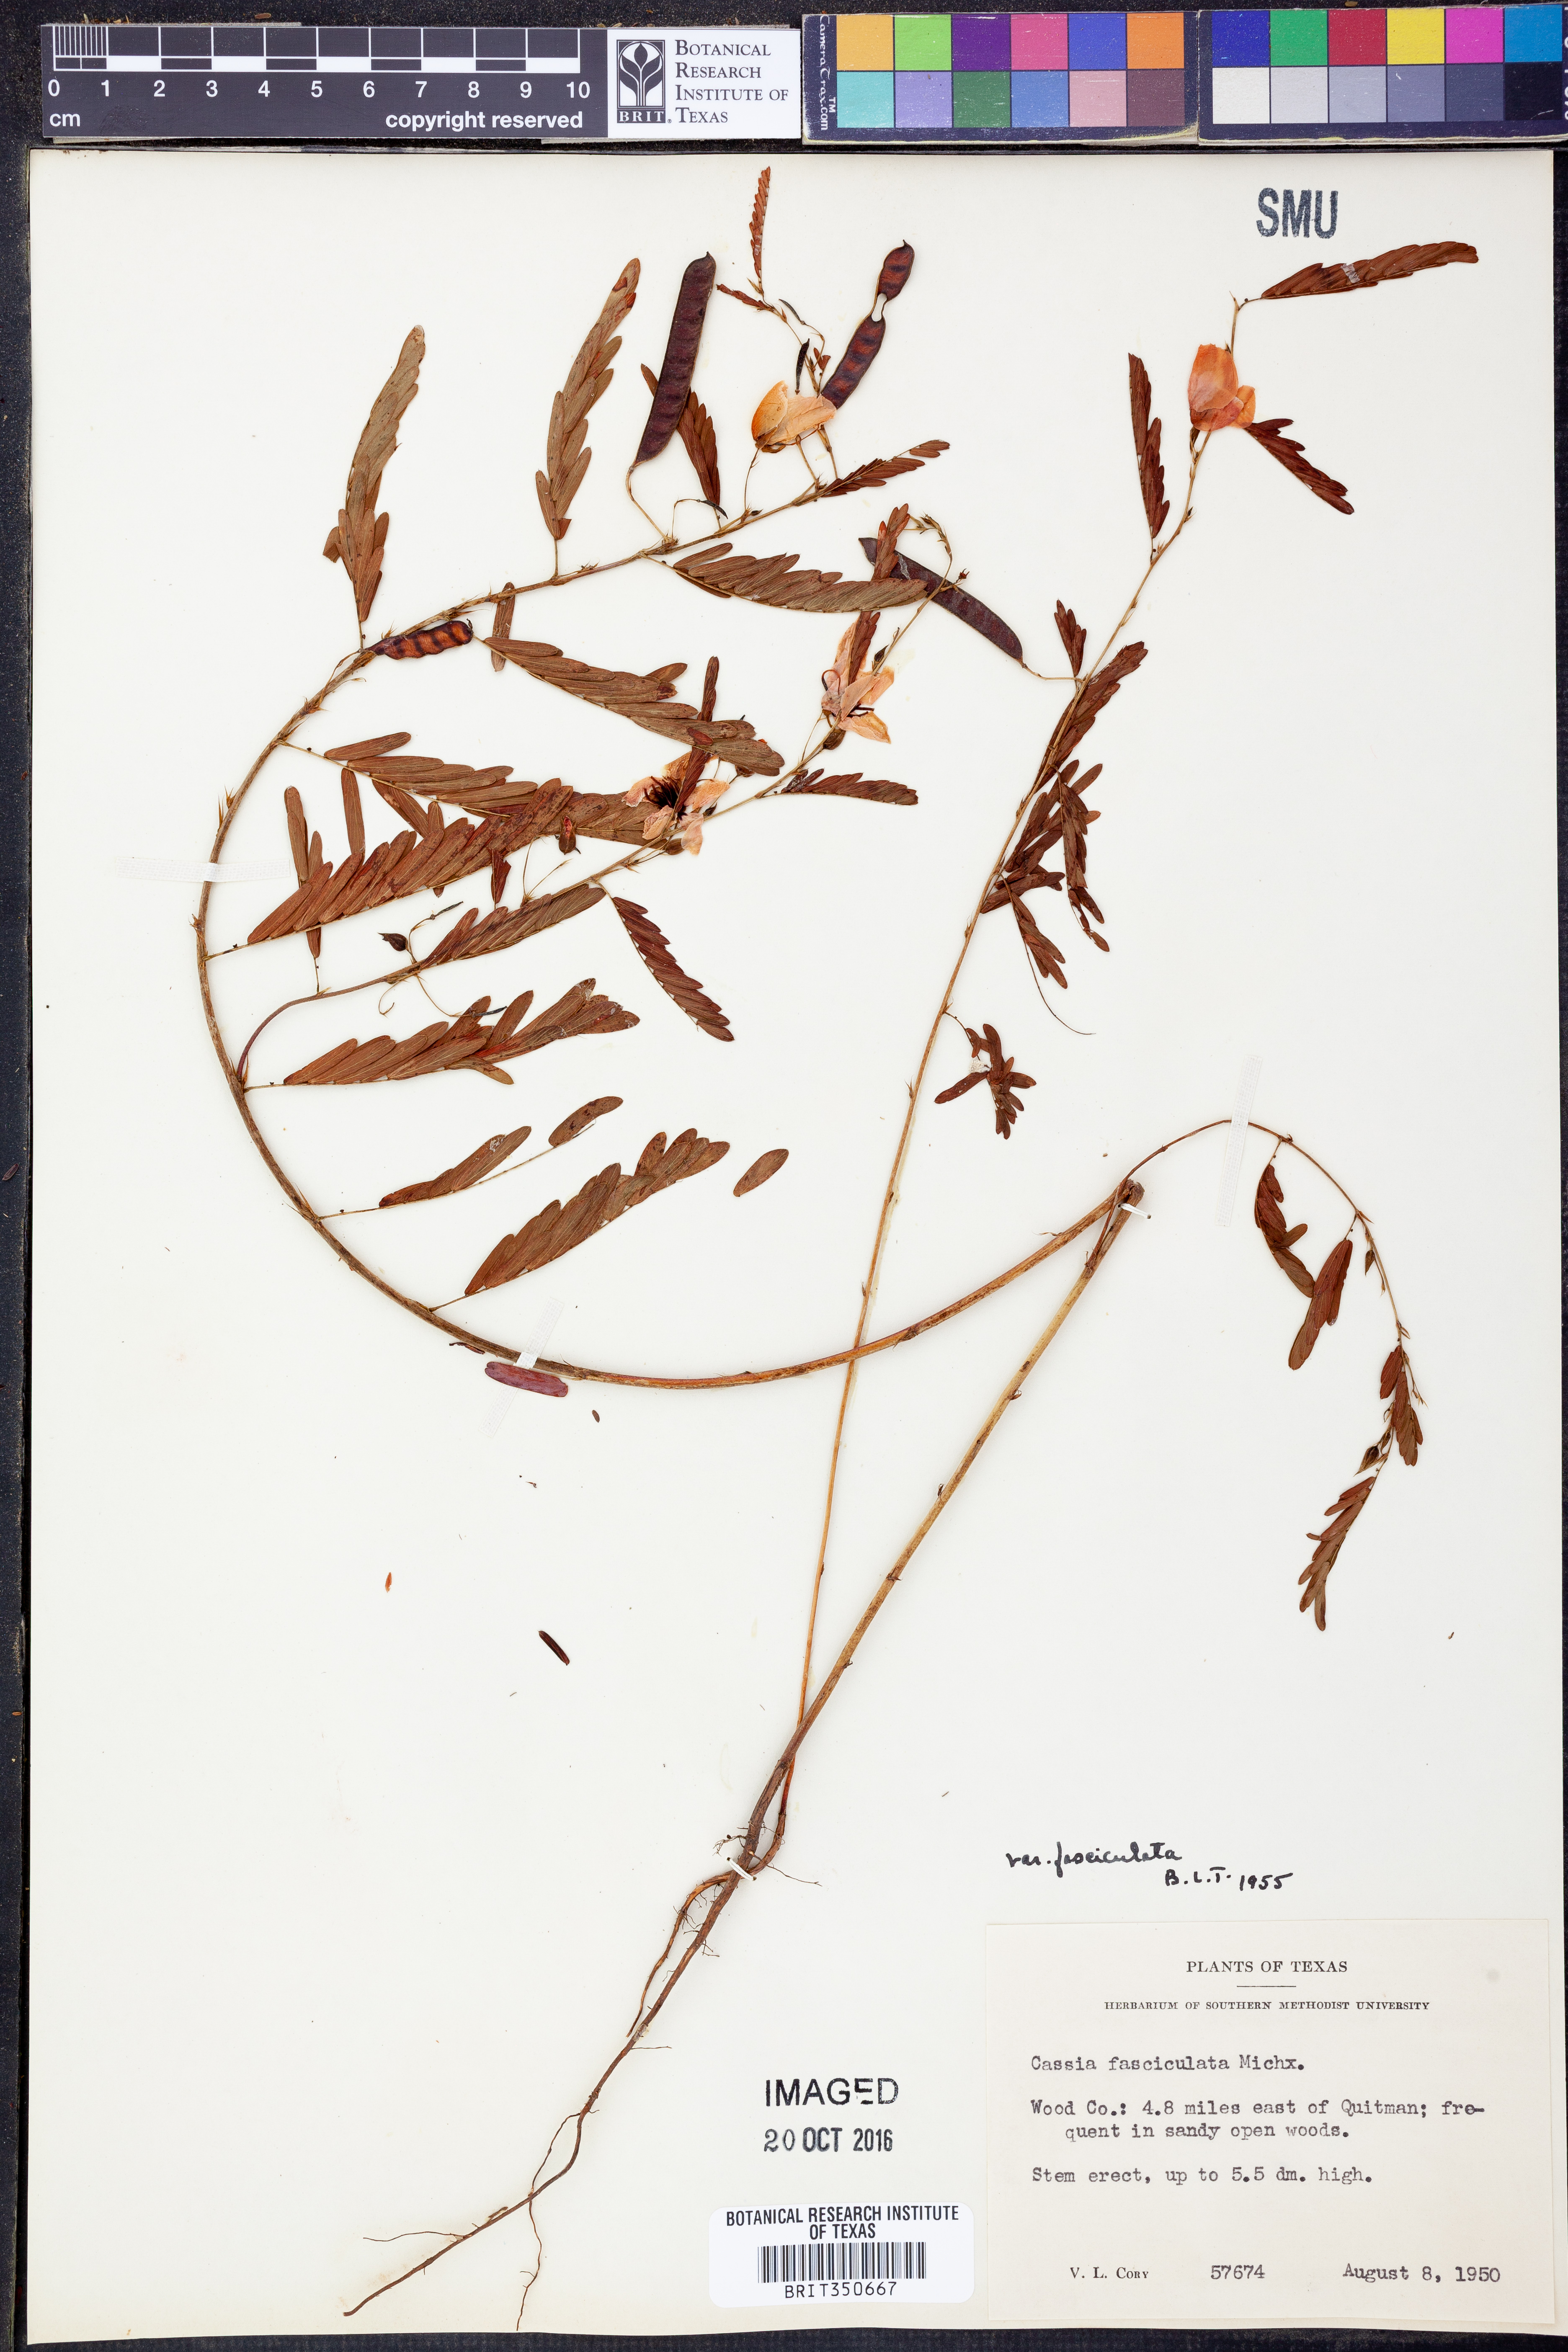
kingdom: Plantae
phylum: Tracheophyta
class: Magnoliopsida
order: Fabales
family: Fabaceae
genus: Chamaecrista
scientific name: Chamaecrista fasciculata
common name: Golden cassia
